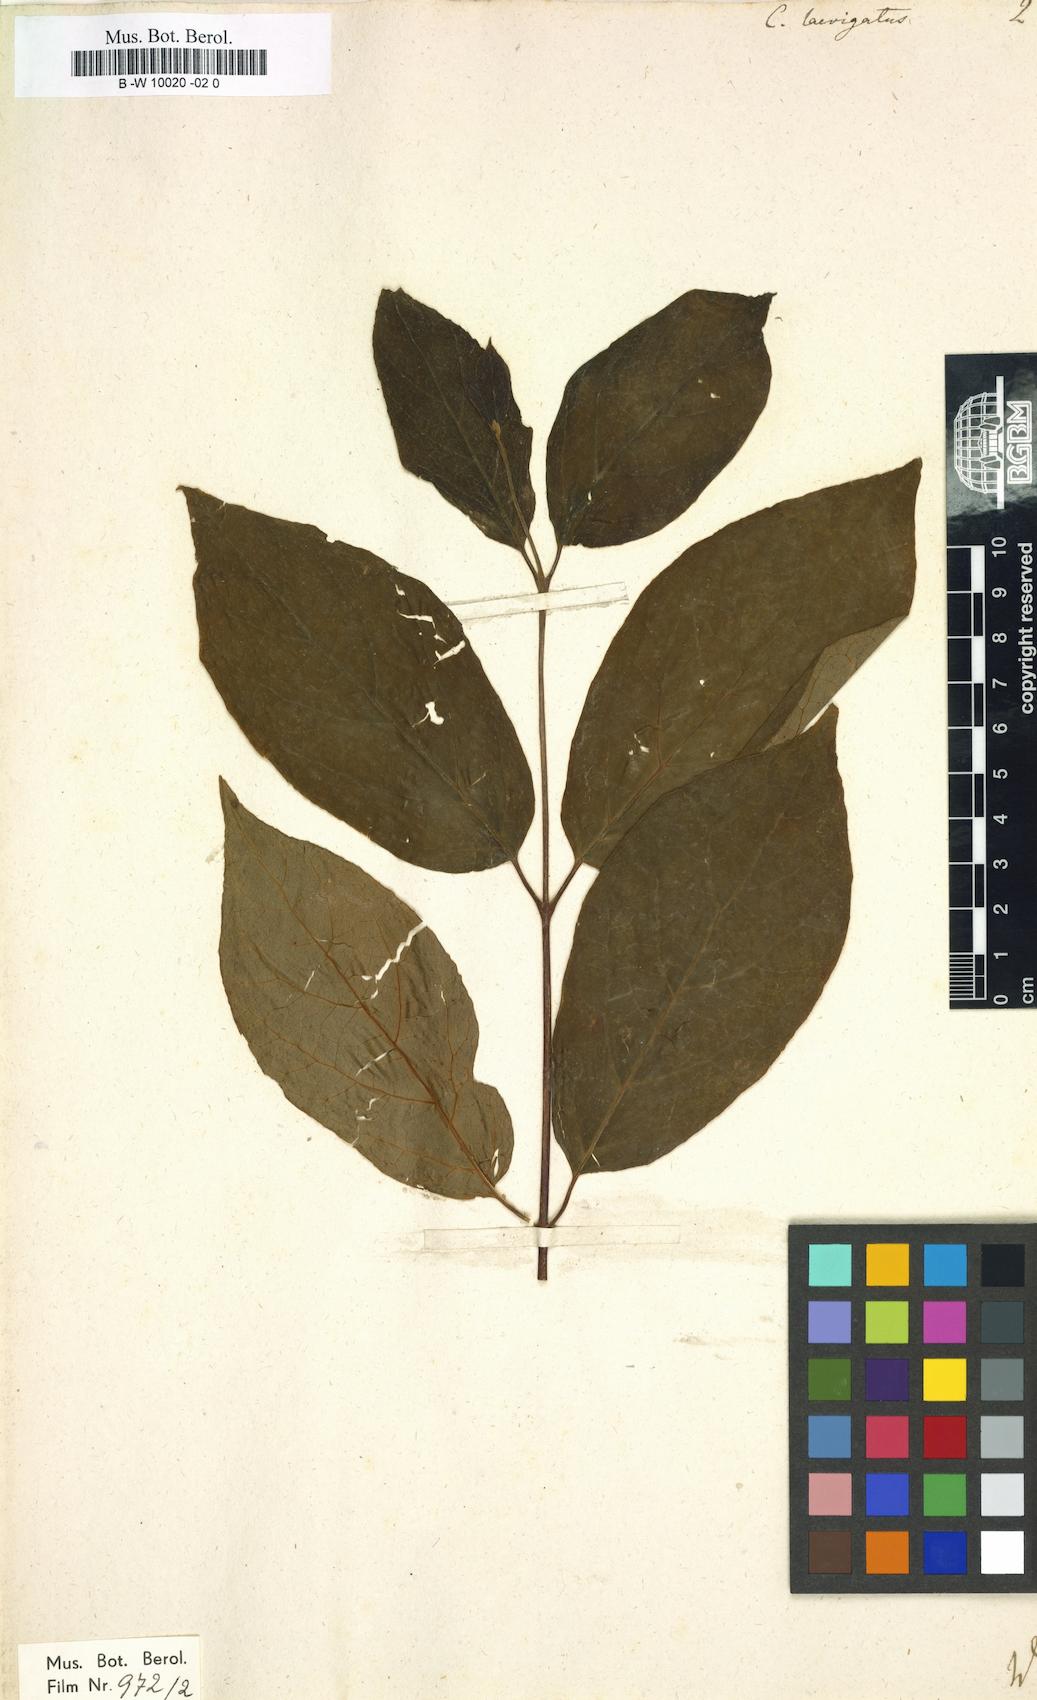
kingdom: Plantae
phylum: Tracheophyta
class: Magnoliopsida
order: Laurales
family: Calycanthaceae
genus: Calycanthus
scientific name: Calycanthus floridus
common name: Carolina-allspice
